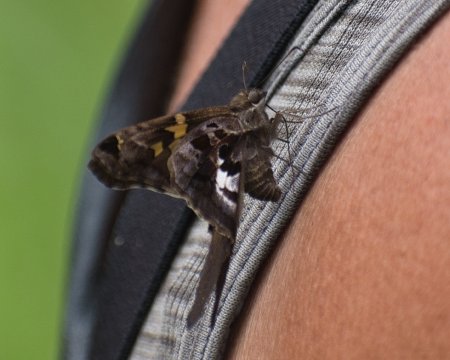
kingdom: Animalia
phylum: Arthropoda
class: Insecta
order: Lepidoptera
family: Hesperiidae
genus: Chioides
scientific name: Chioides zilpa
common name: Zilpa Longtail
